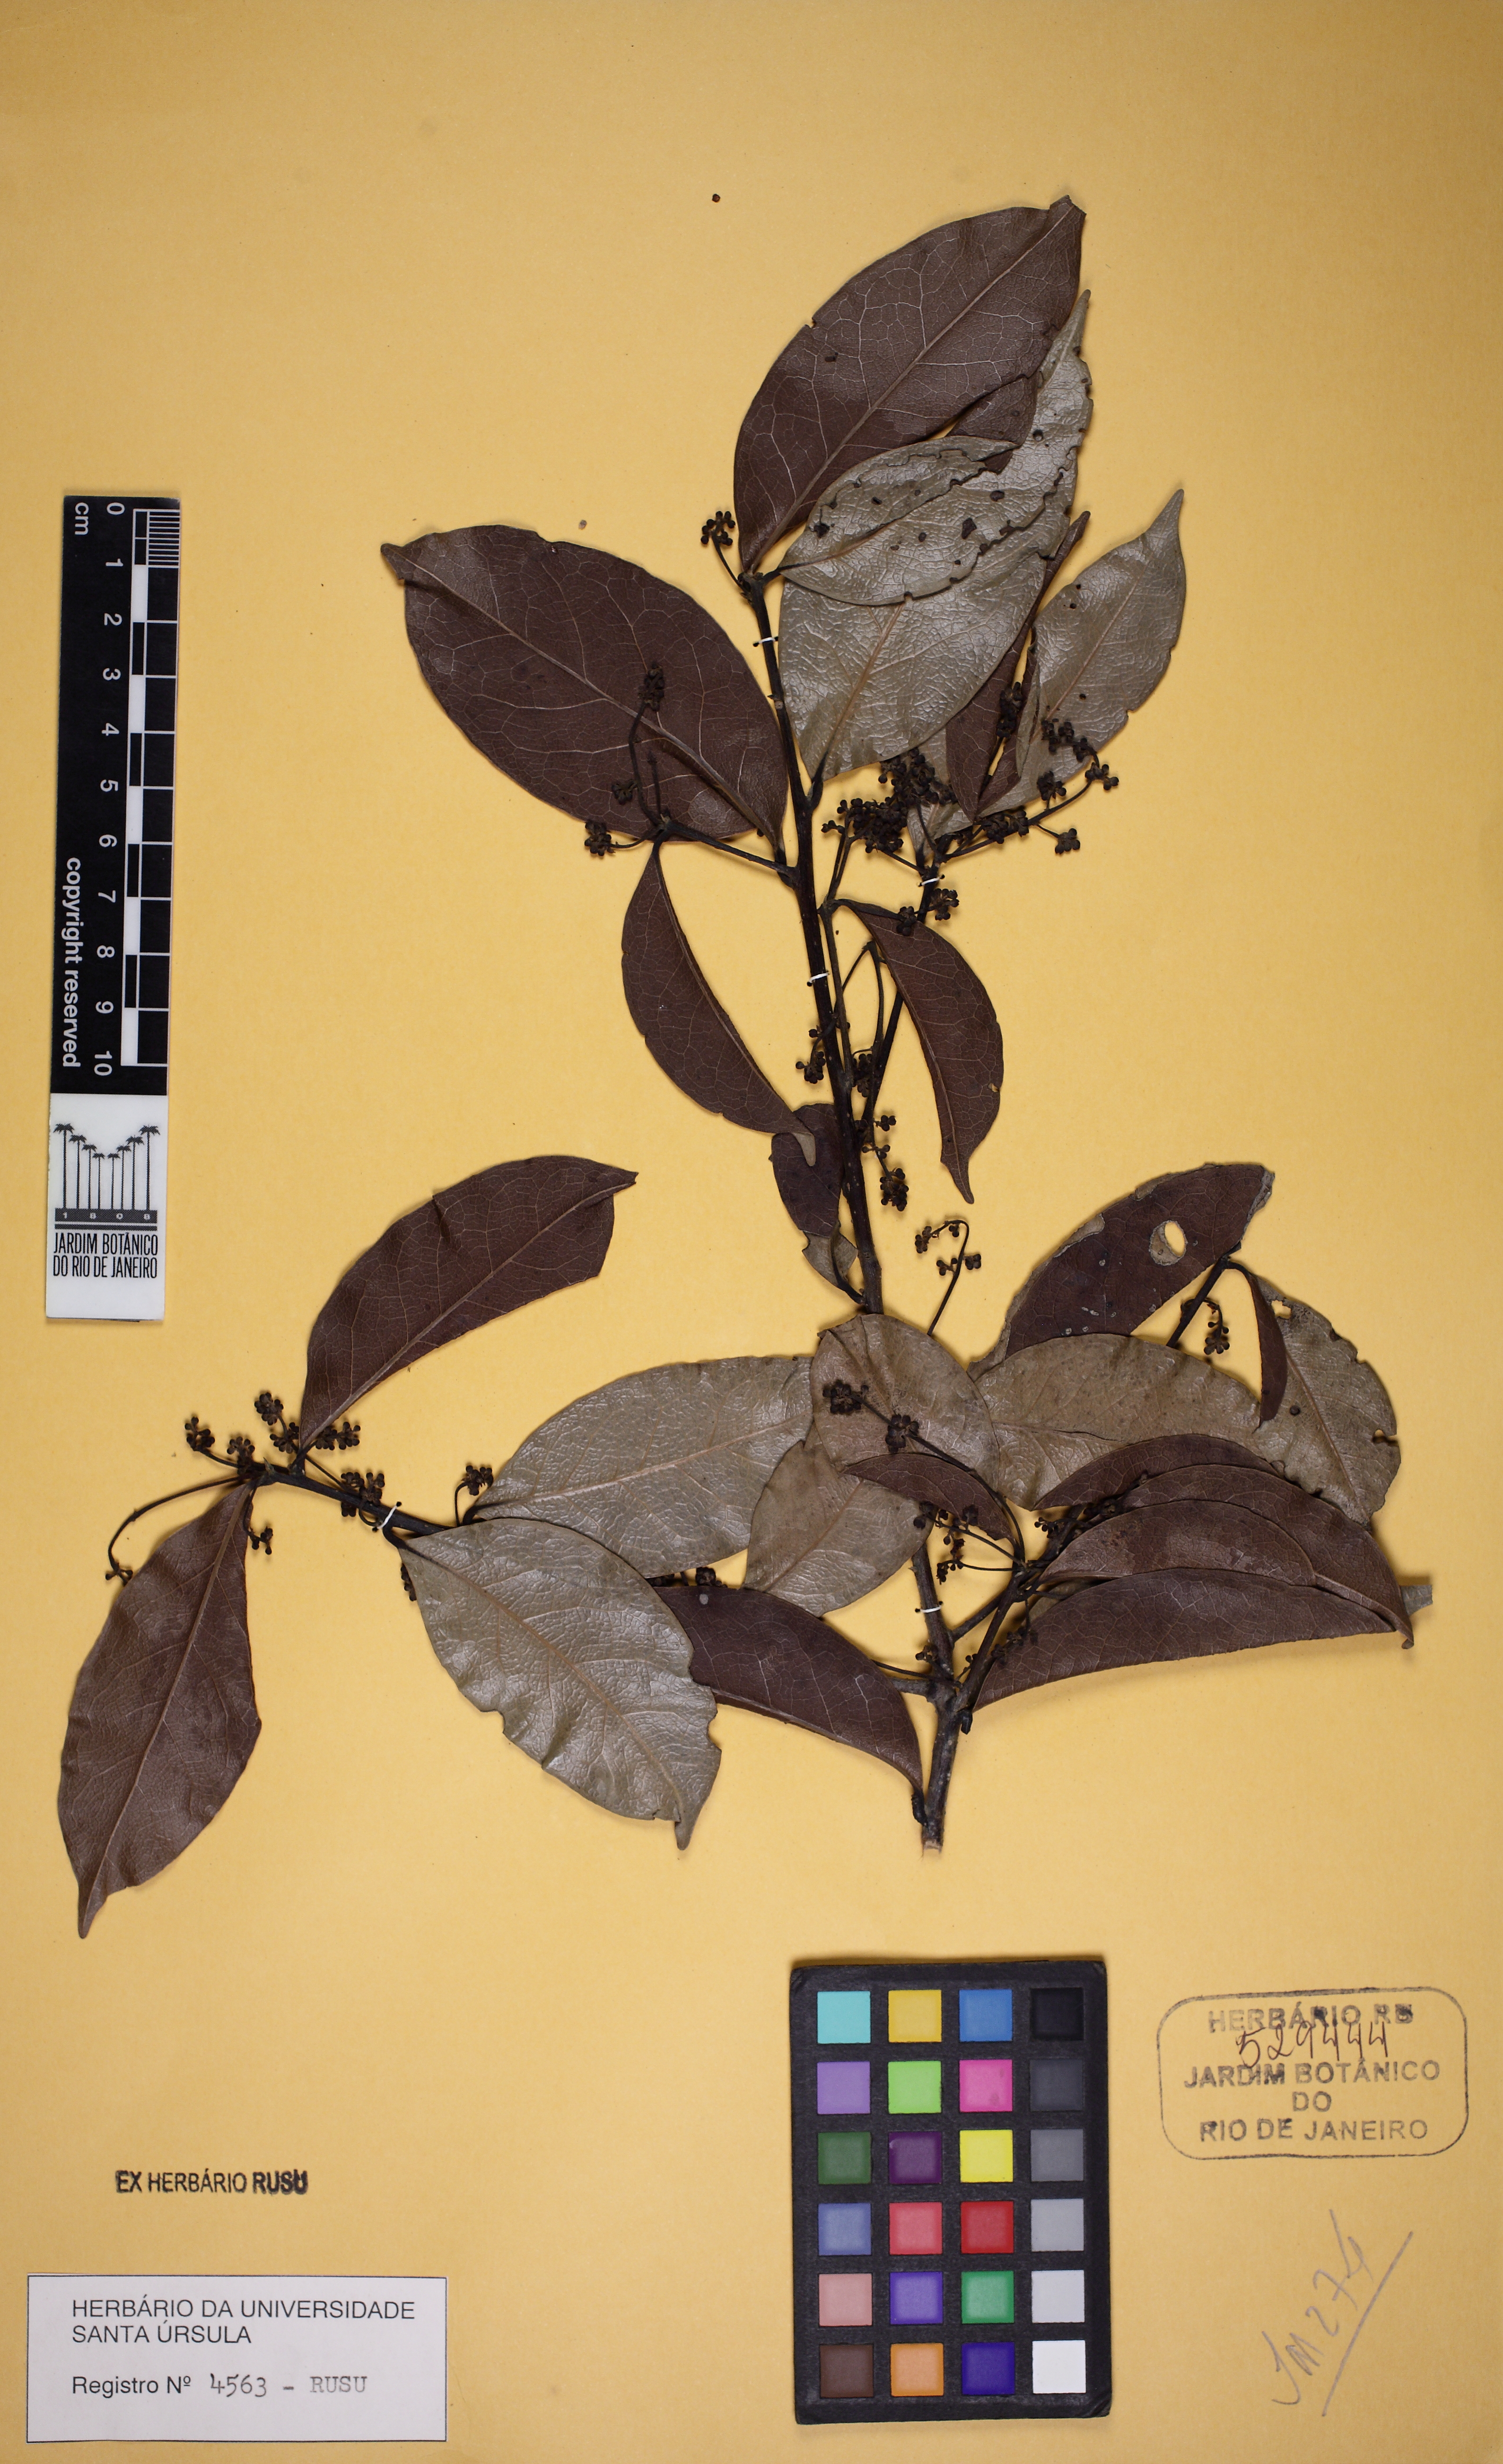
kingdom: Plantae
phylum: Tracheophyta
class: Magnoliopsida
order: Laurales
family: Lauraceae
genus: Mespilodaphne
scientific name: Mespilodaphne glauca
